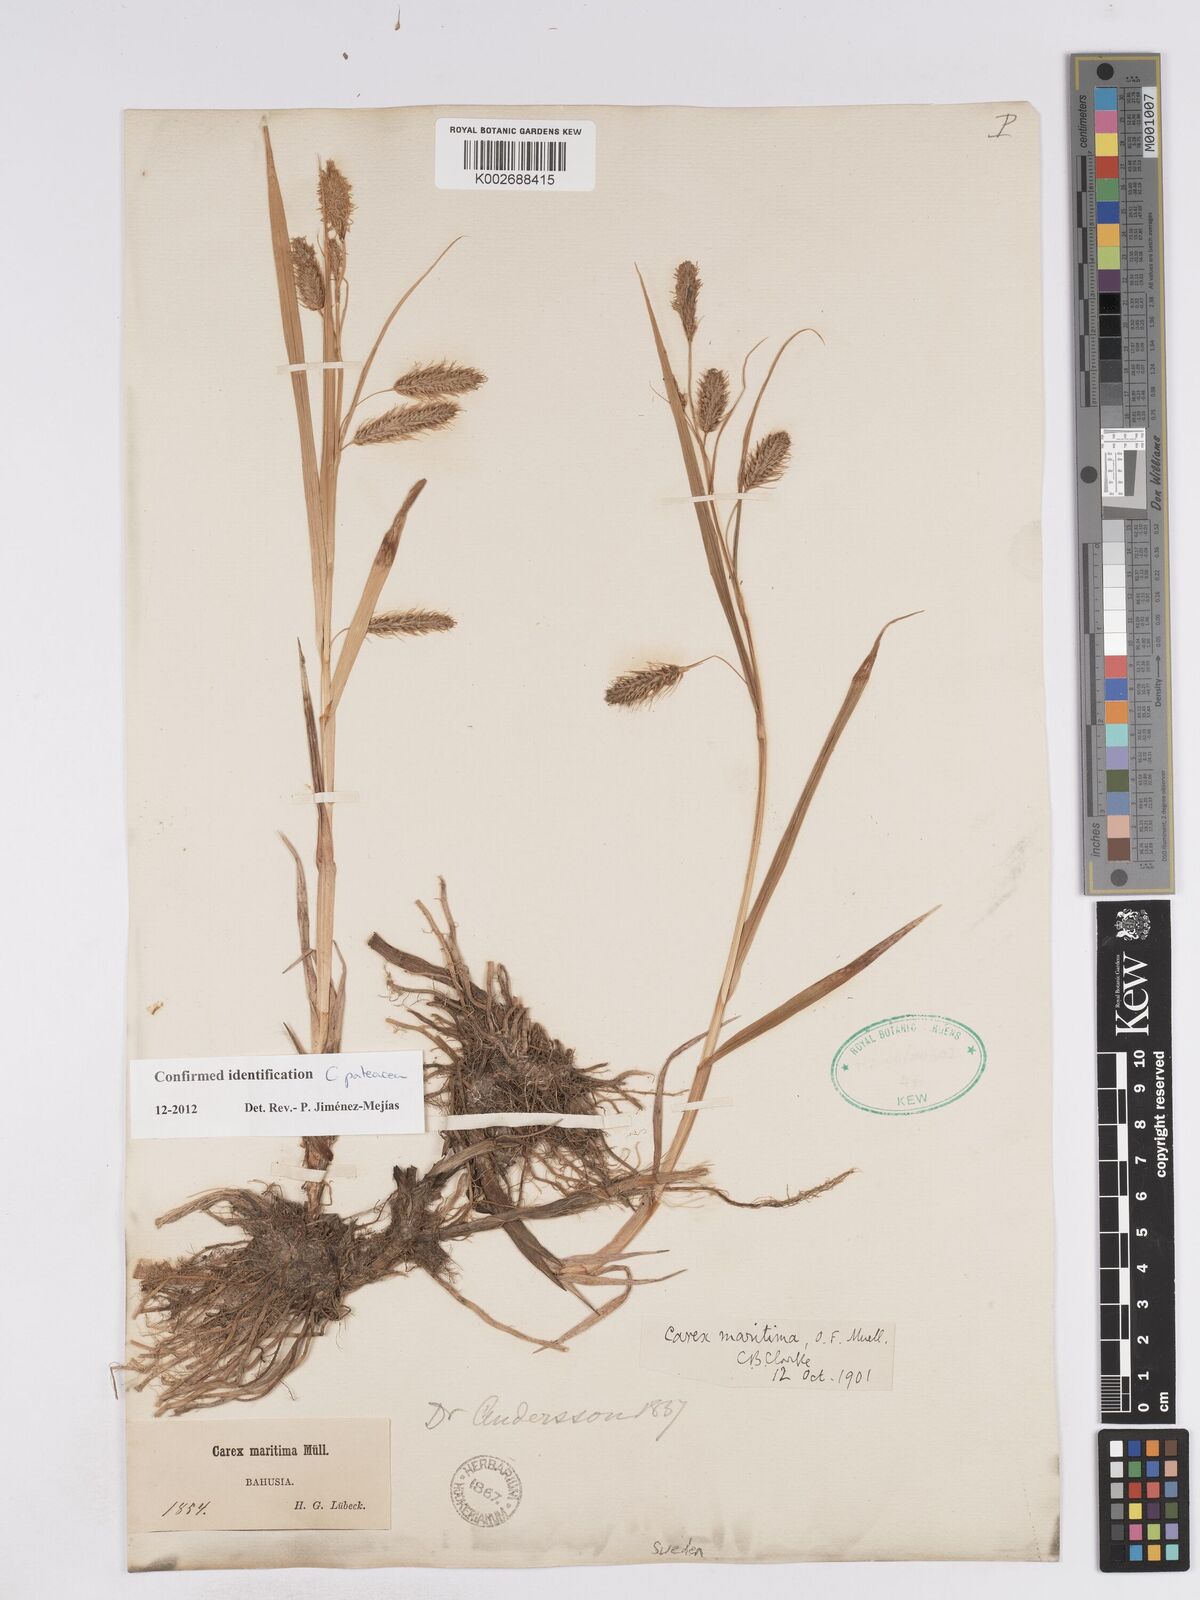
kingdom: Plantae
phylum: Tracheophyta
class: Liliopsida
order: Poales
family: Cyperaceae
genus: Carex
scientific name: Carex paleacea
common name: Chaffy sedge
